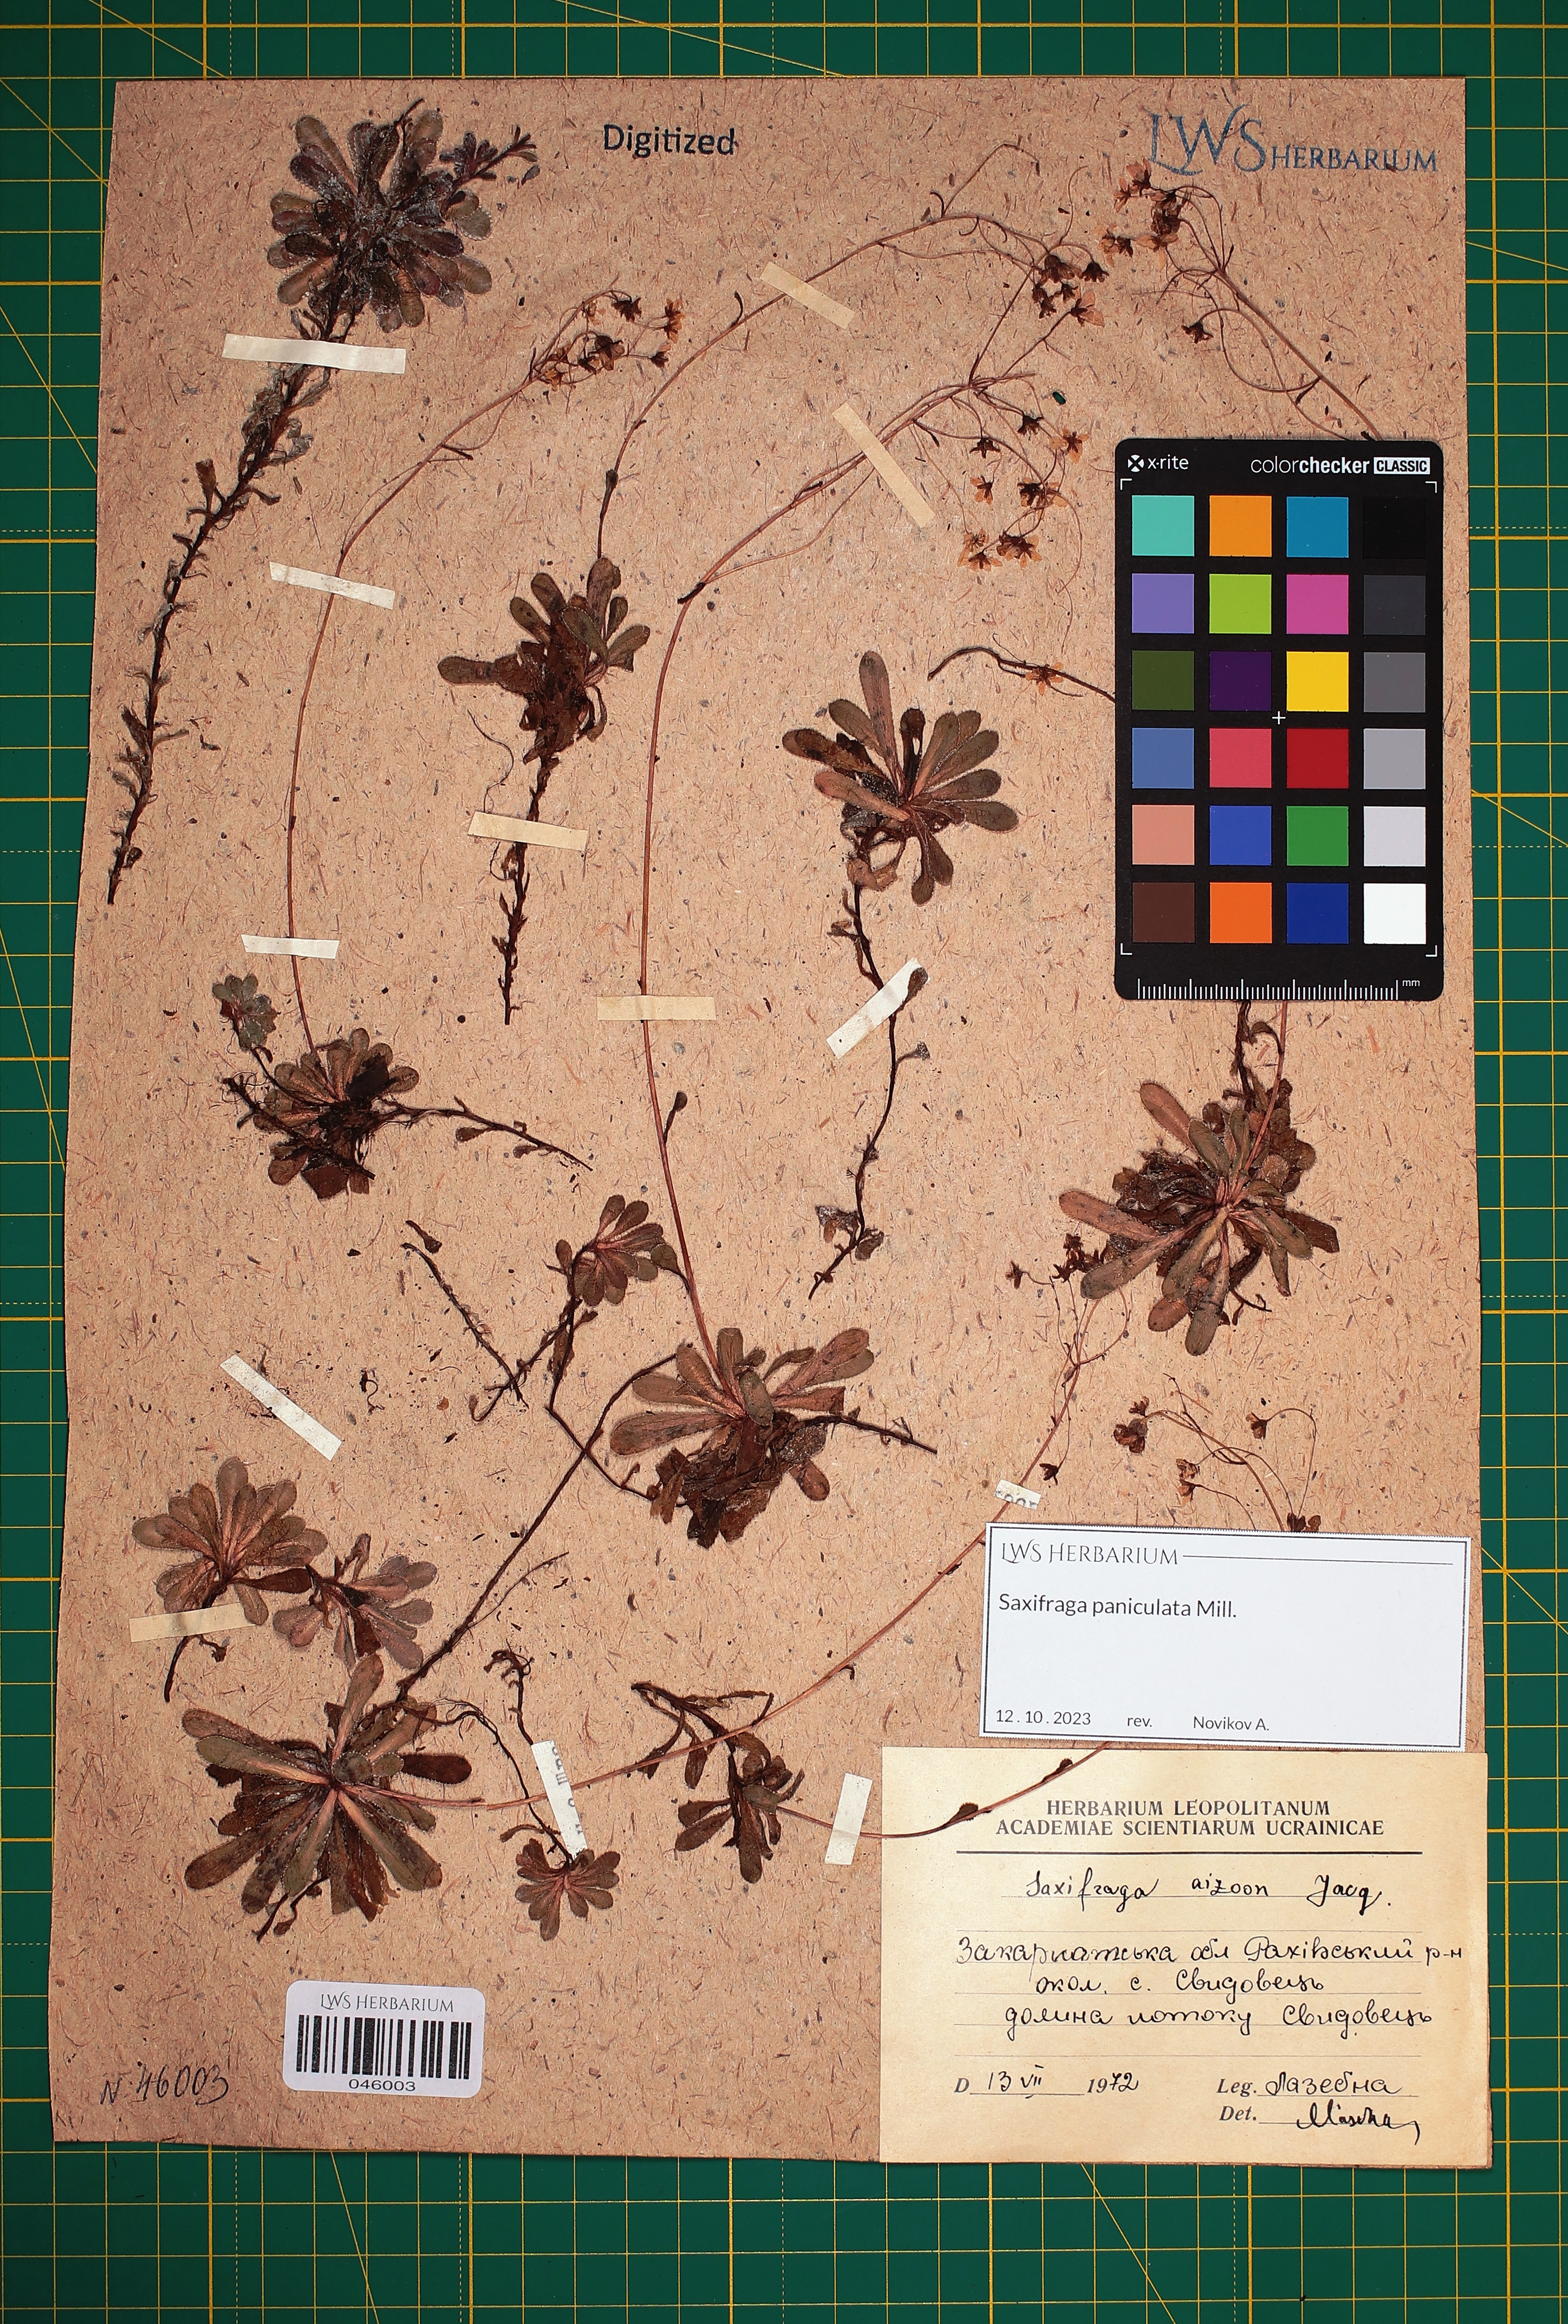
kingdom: Plantae
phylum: Tracheophyta
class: Magnoliopsida
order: Saxifragales
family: Saxifragaceae
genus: Saxifraga
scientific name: Saxifraga paniculata
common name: Livelong saxifrage
